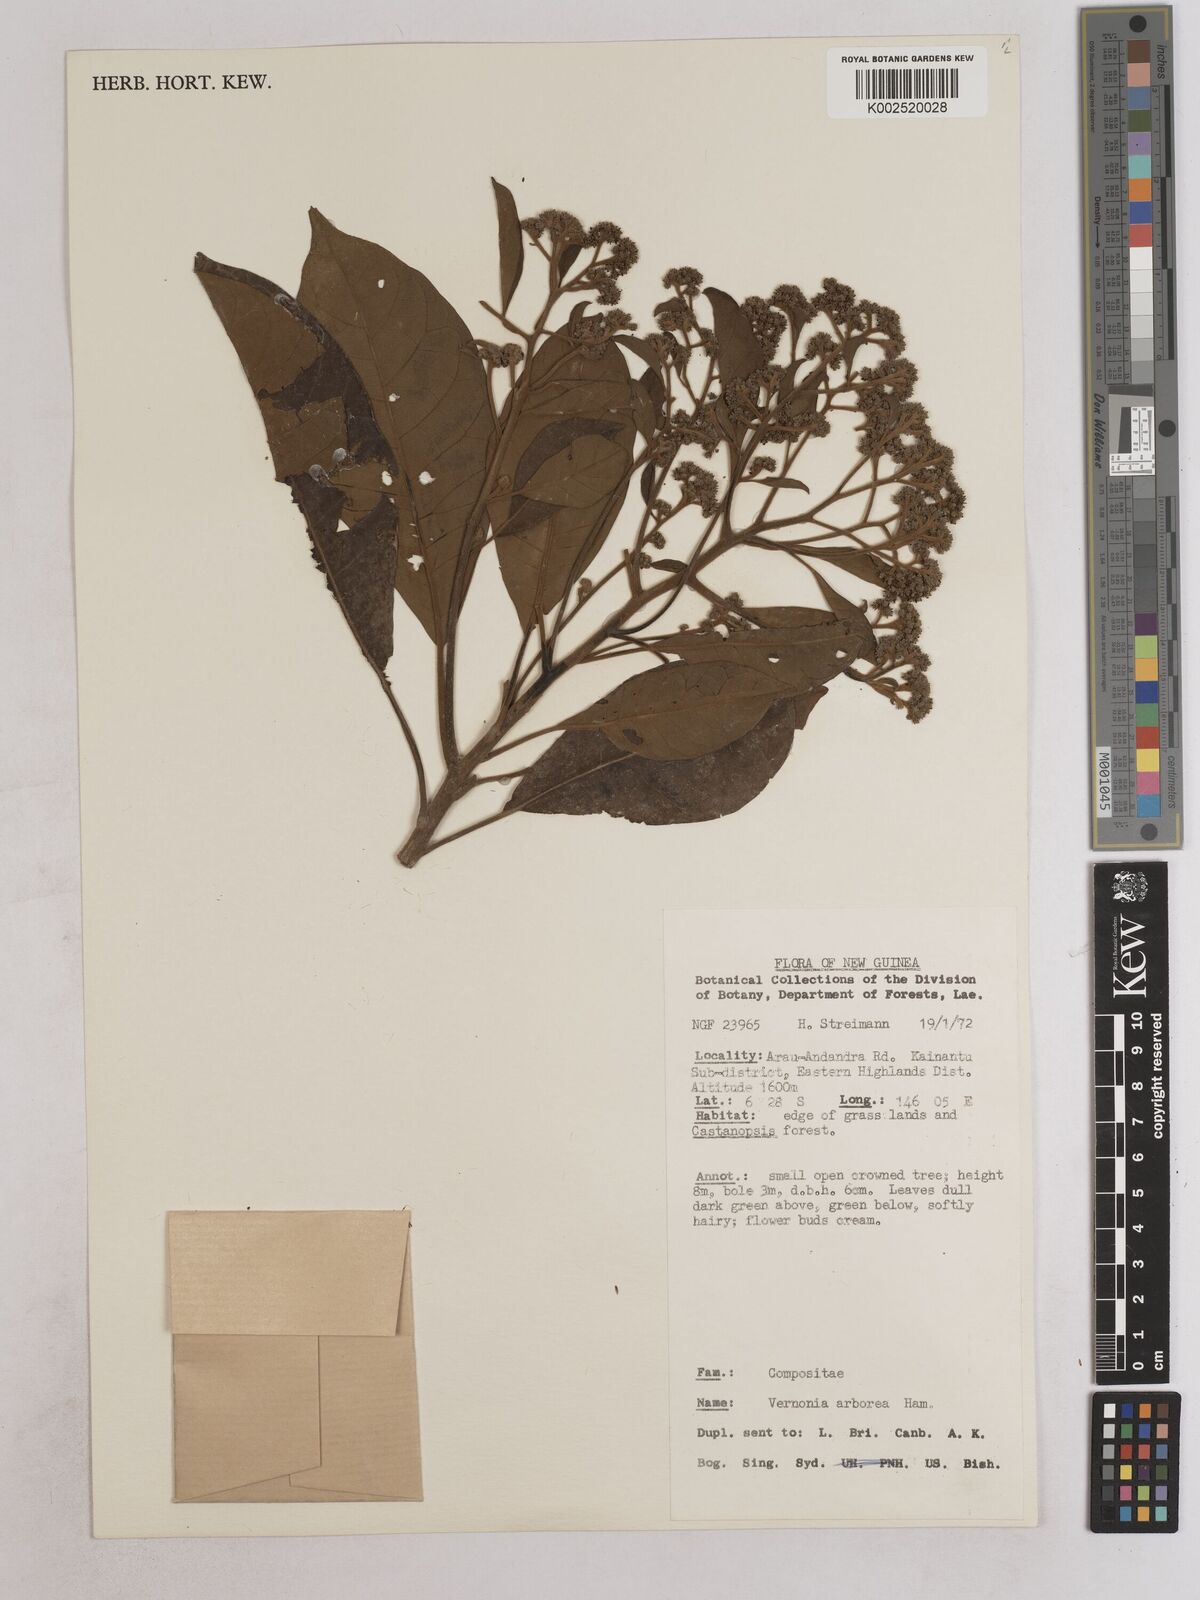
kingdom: Plantae
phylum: Tracheophyta
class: Magnoliopsida
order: Asterales
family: Asteraceae
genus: Strobocalyx
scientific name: Strobocalyx arborea
